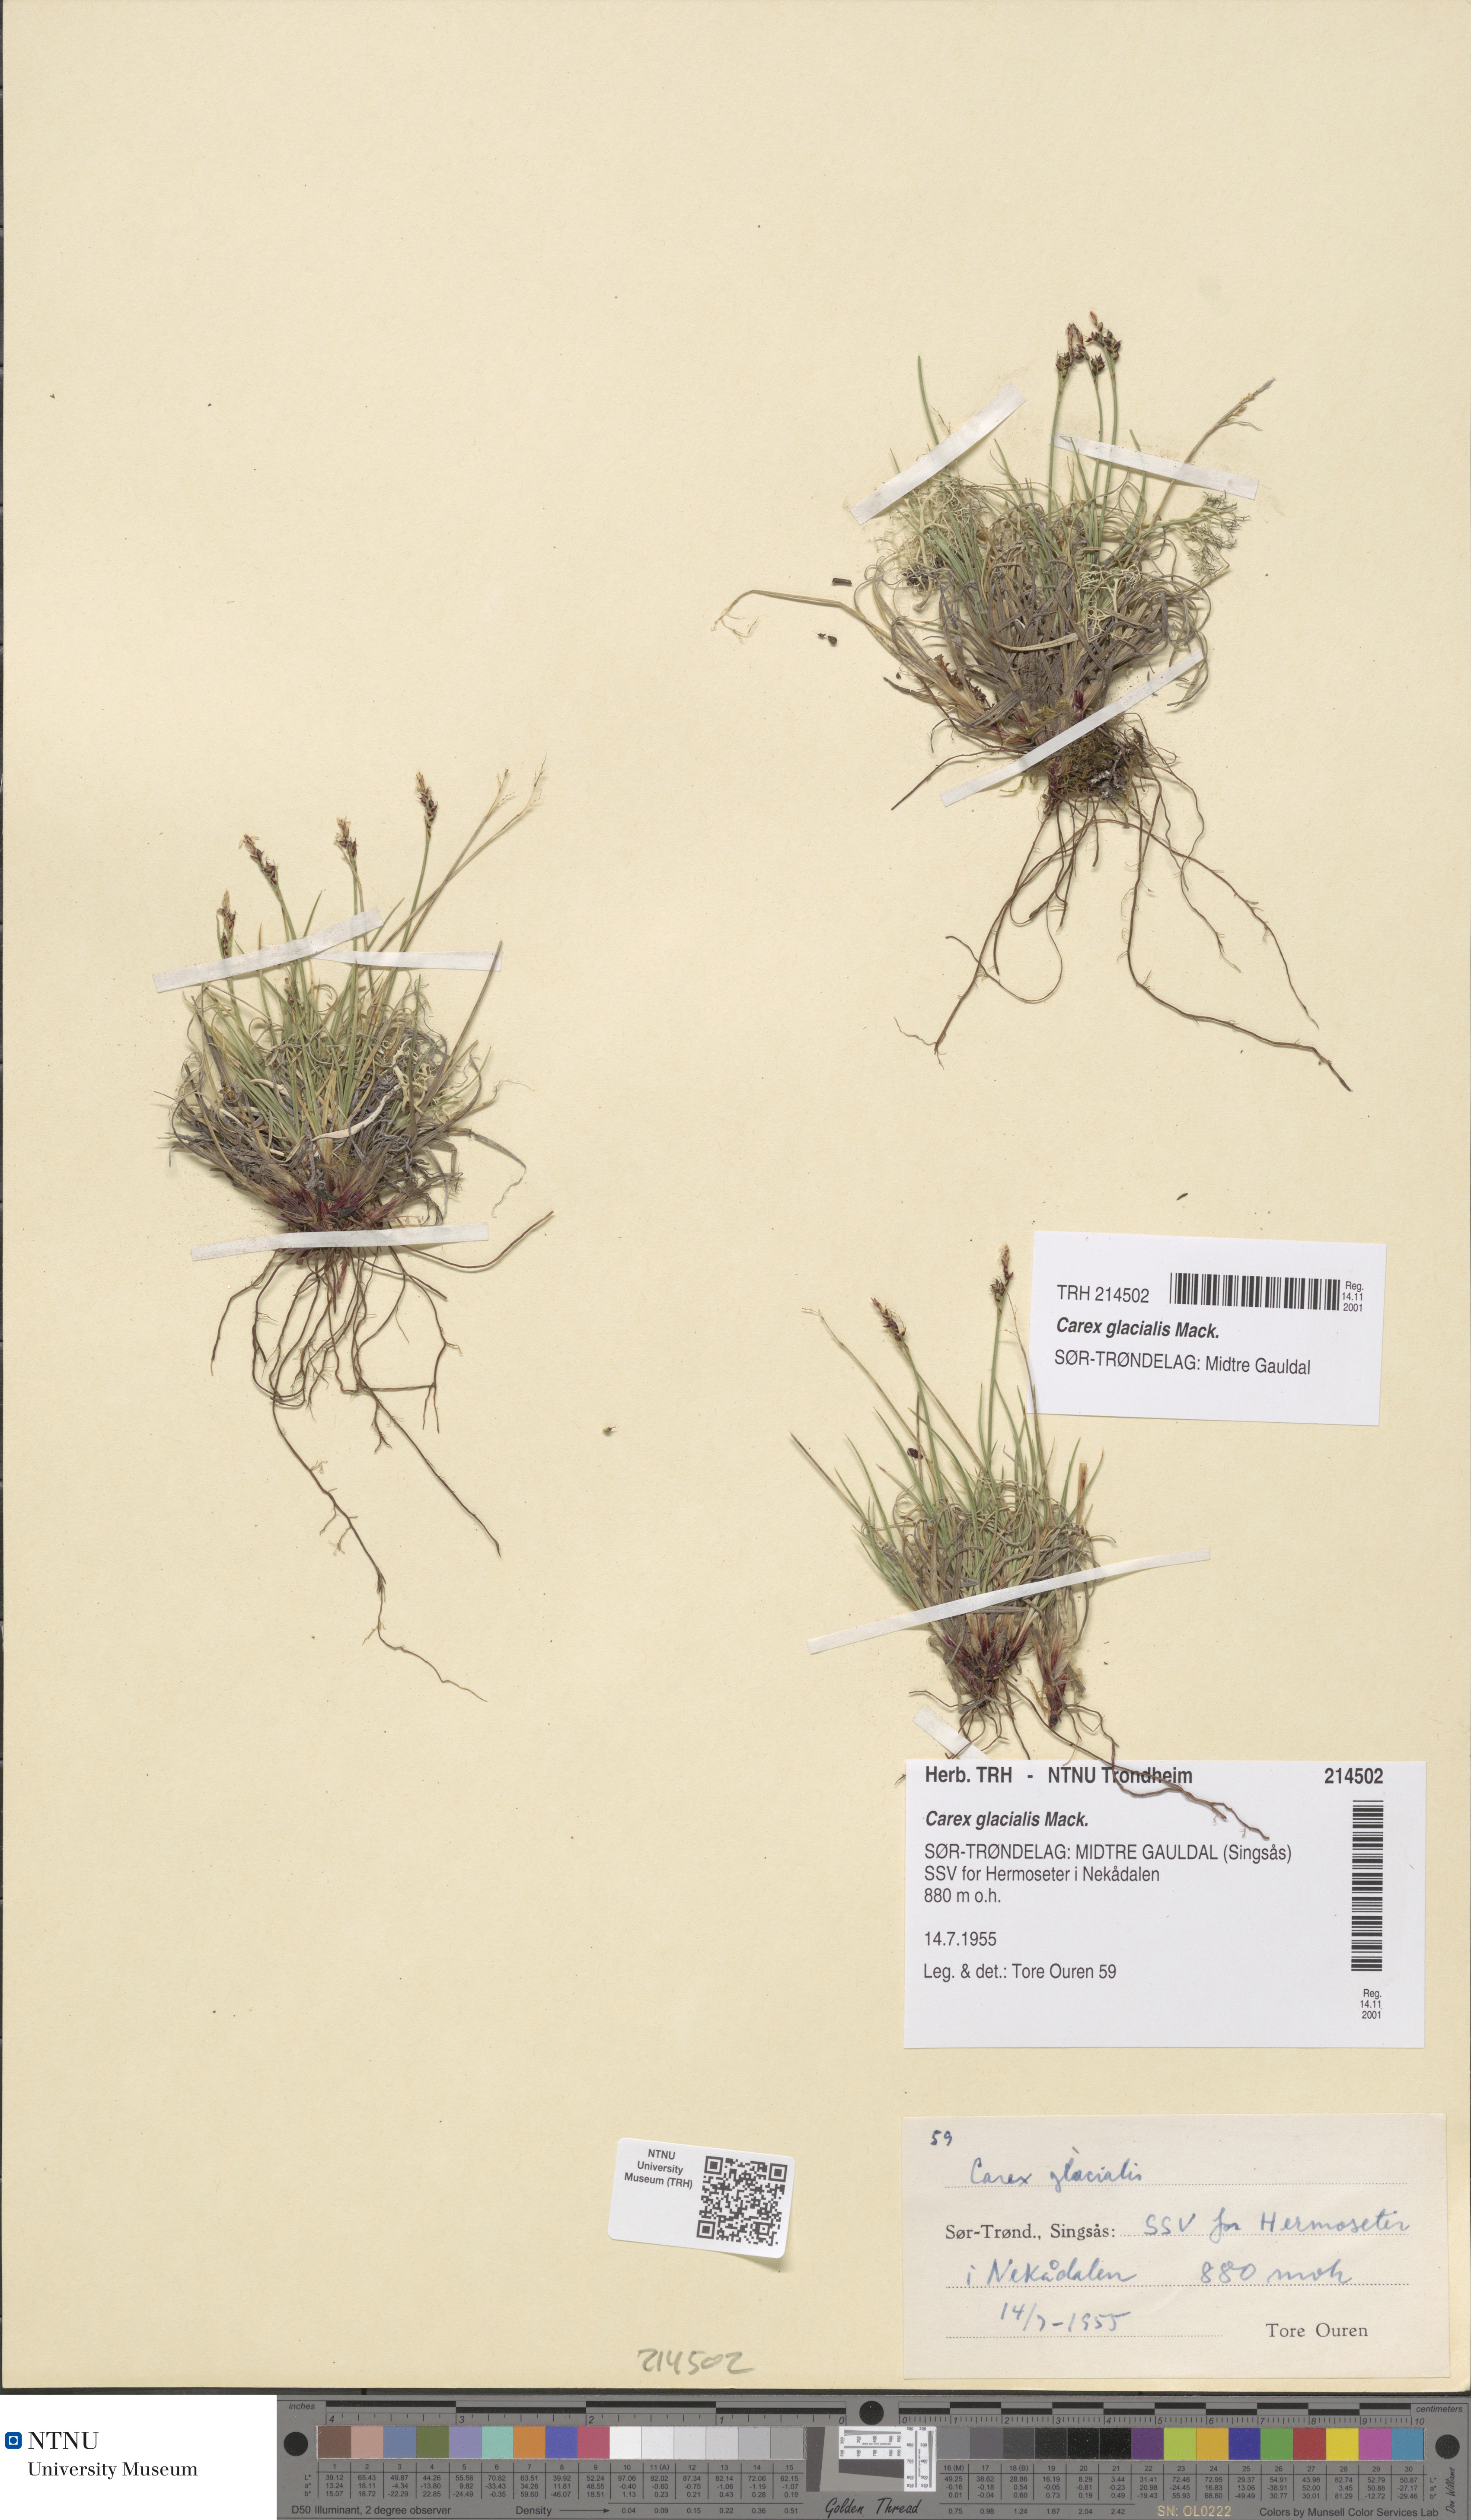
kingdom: Plantae
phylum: Tracheophyta
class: Liliopsida
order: Poales
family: Cyperaceae
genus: Carex
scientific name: Carex glacialis
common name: Newfoundland sedge
